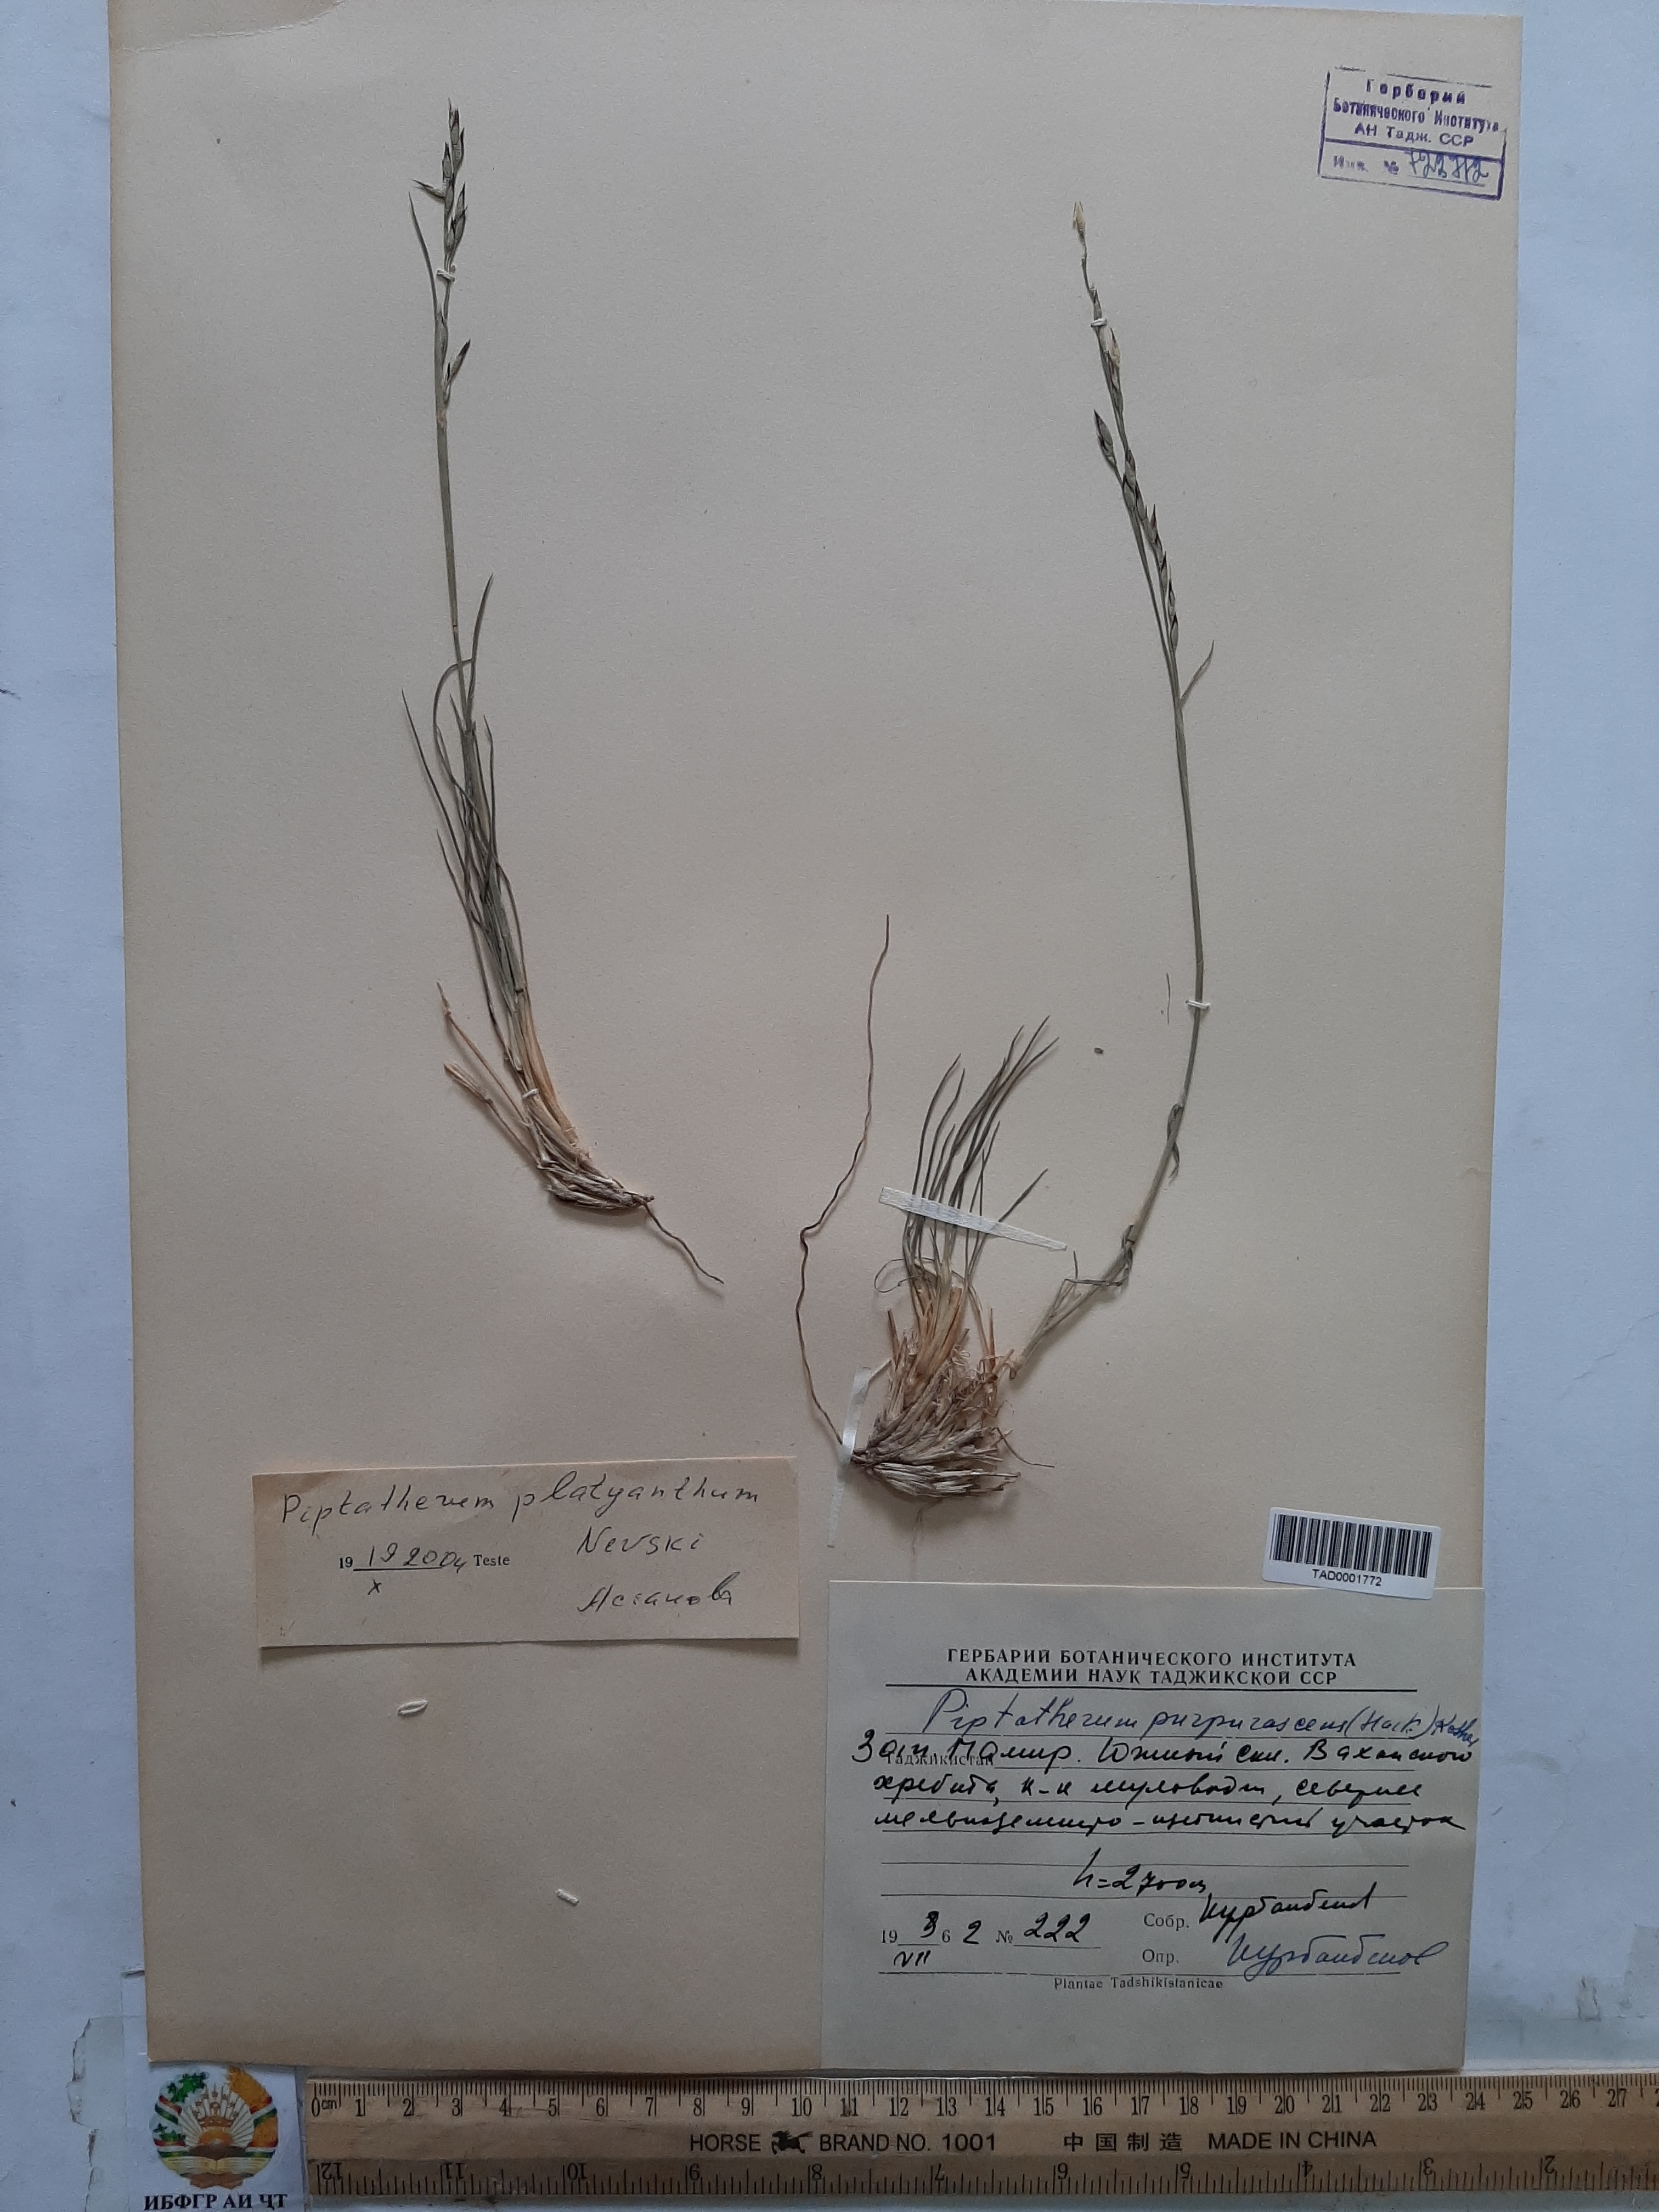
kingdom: Plantae
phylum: Tracheophyta
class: Liliopsida
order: Poales
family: Poaceae
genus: Piptatherum
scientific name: Piptatherum platyanthum
